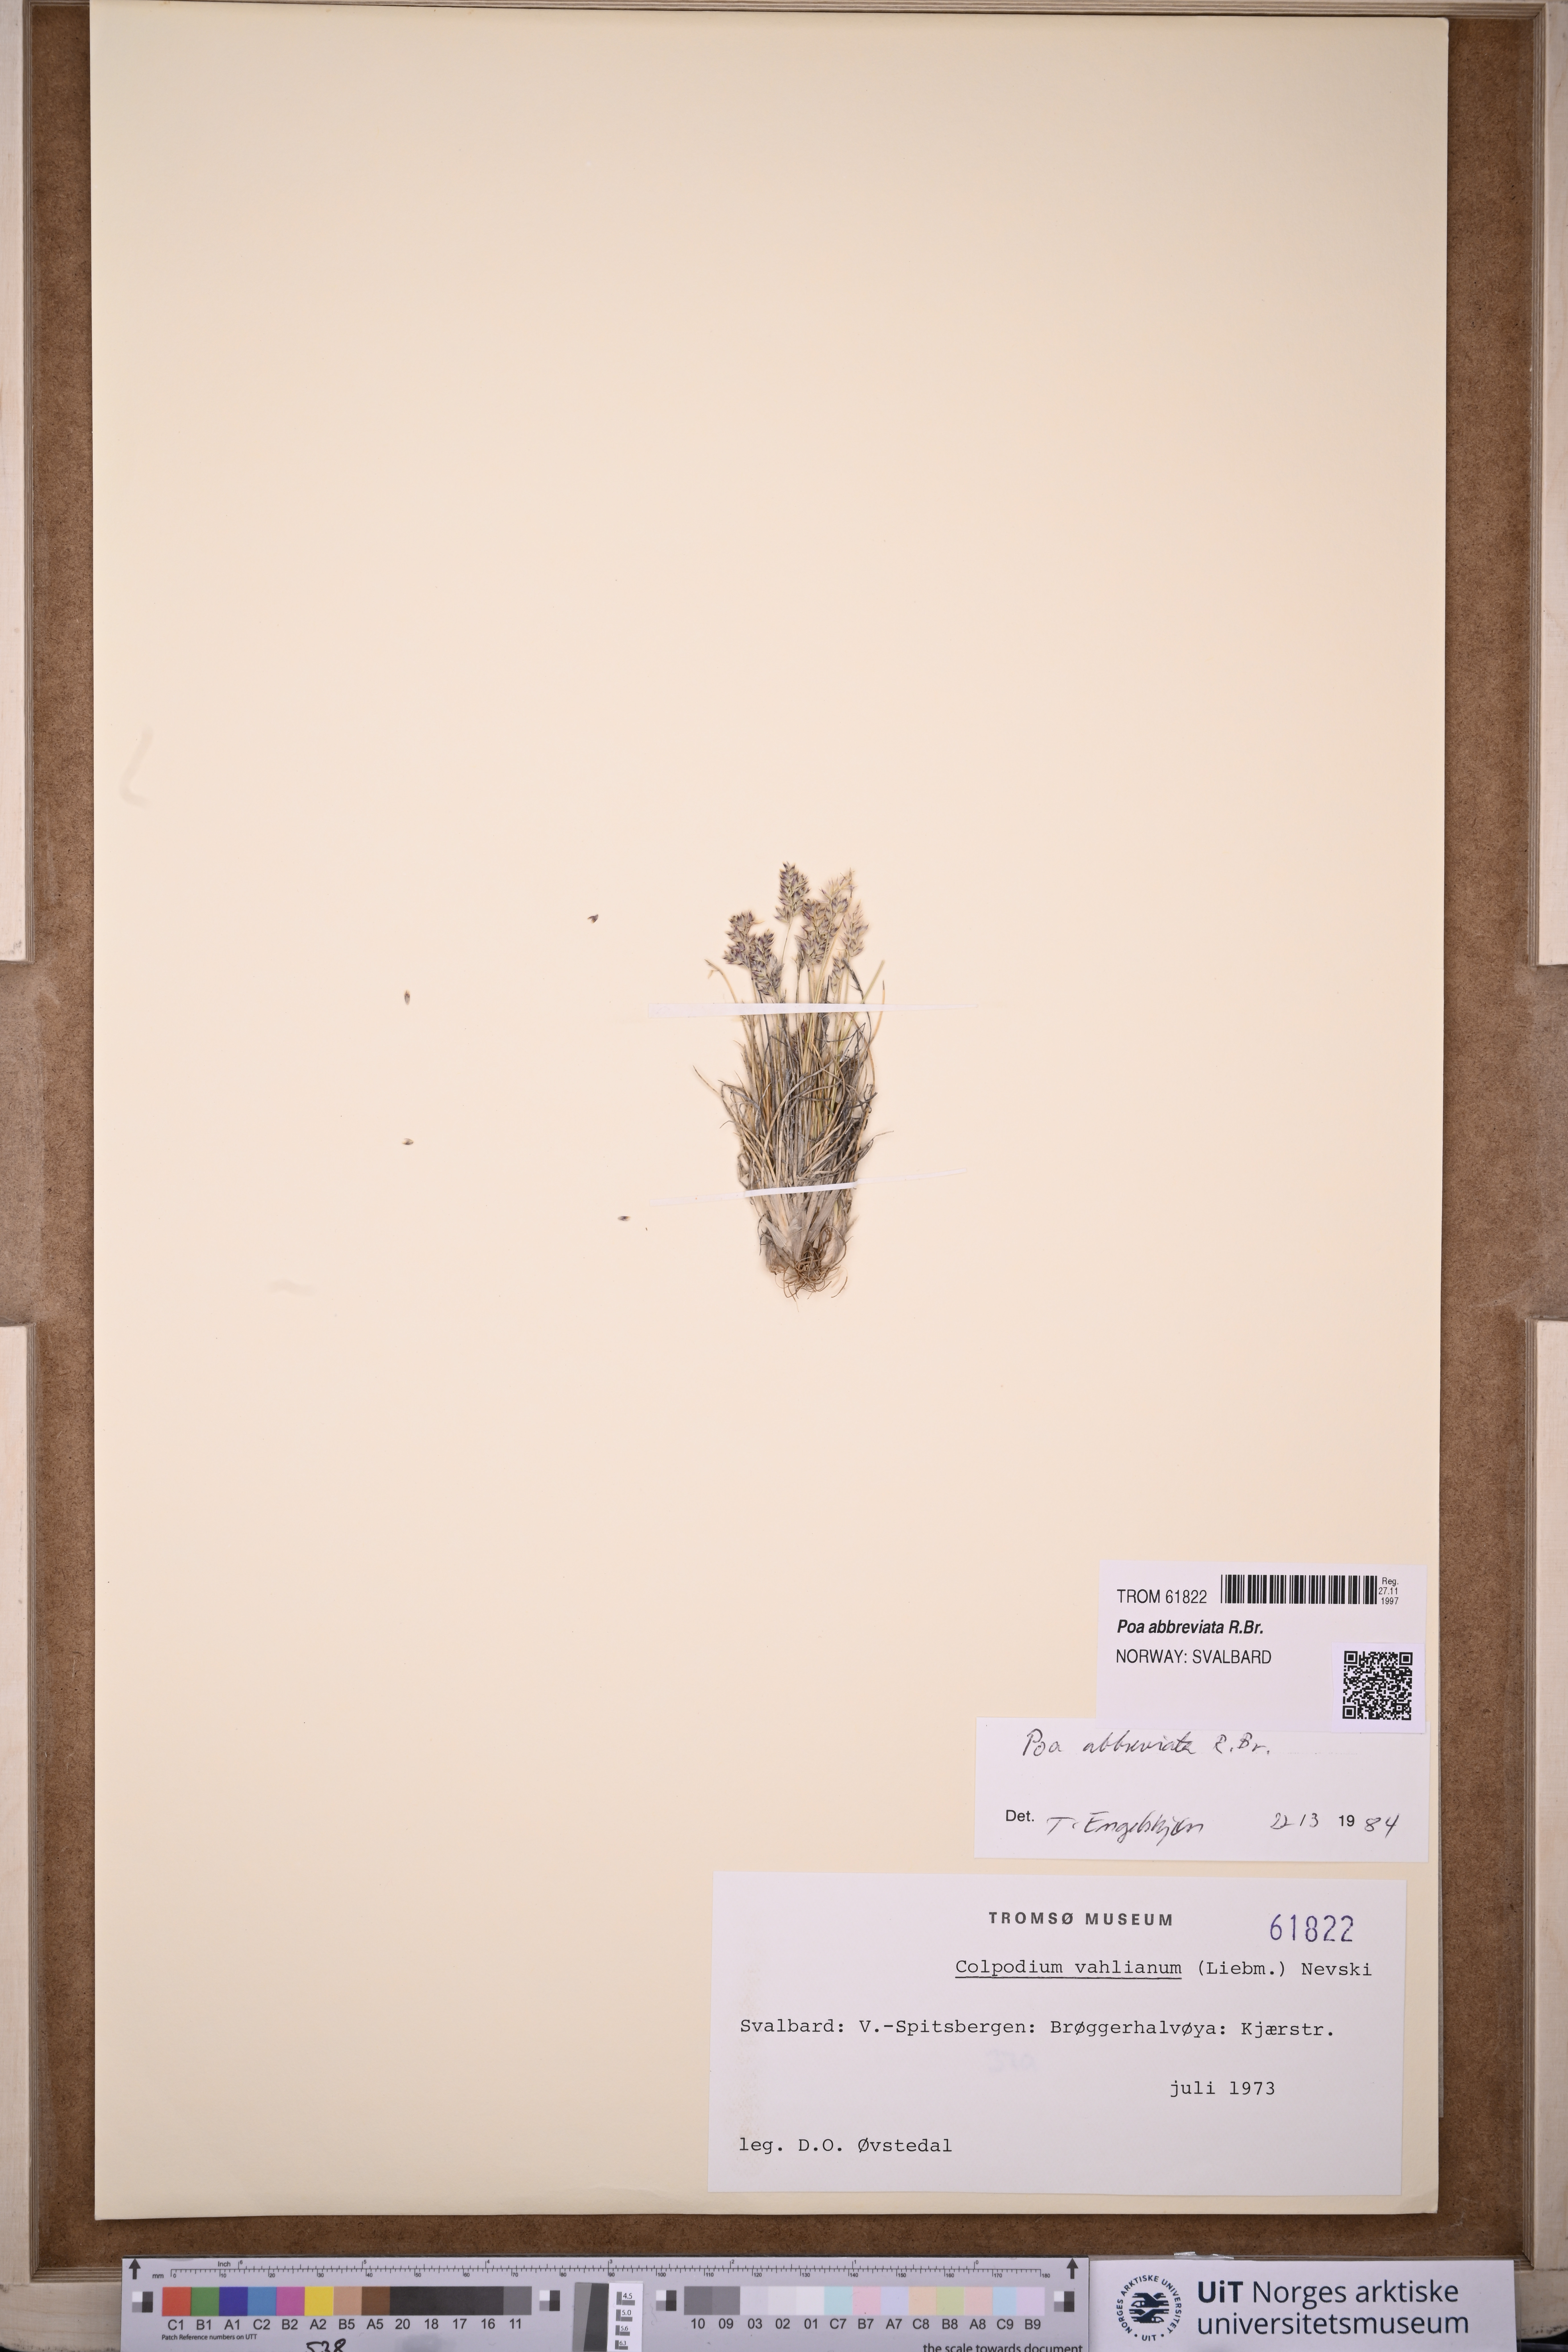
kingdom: Plantae
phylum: Tracheophyta
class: Liliopsida
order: Poales
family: Poaceae
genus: Poa
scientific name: Poa abbreviata
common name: Abbreviated bluegrass
